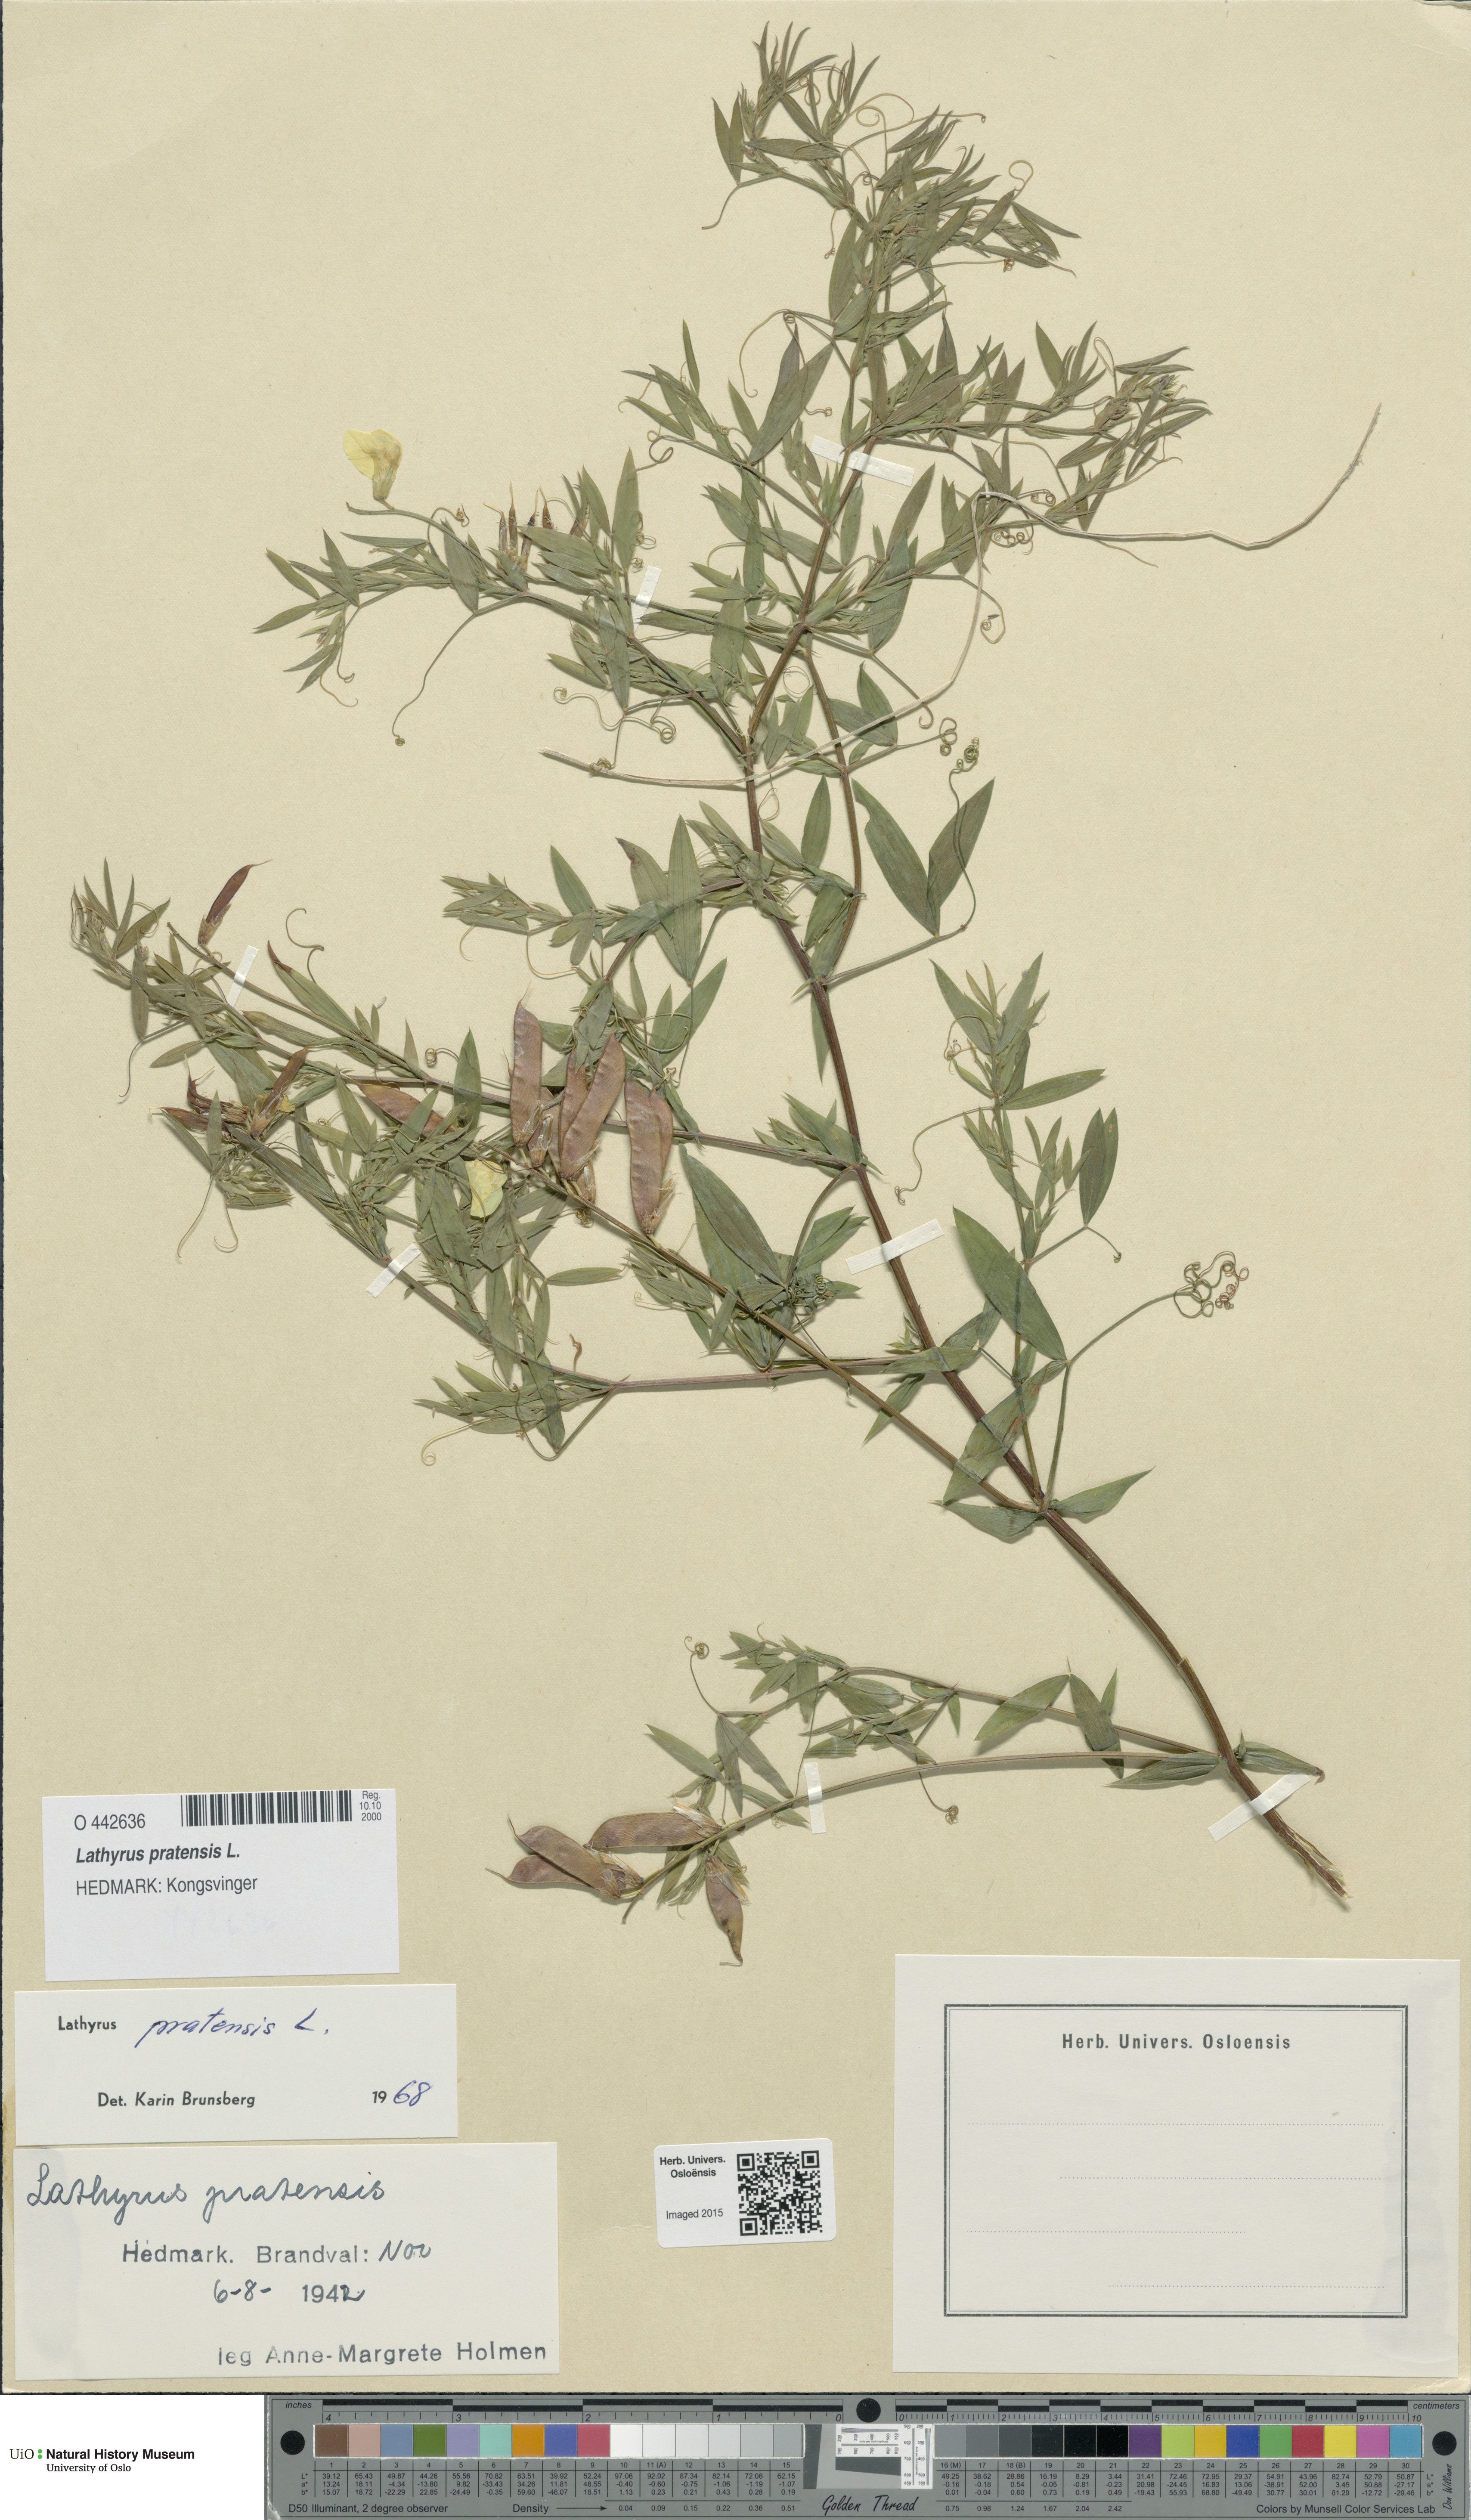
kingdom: Plantae
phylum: Tracheophyta
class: Magnoliopsida
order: Fabales
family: Fabaceae
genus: Lathyrus
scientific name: Lathyrus pratensis
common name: Meadow vetchling
